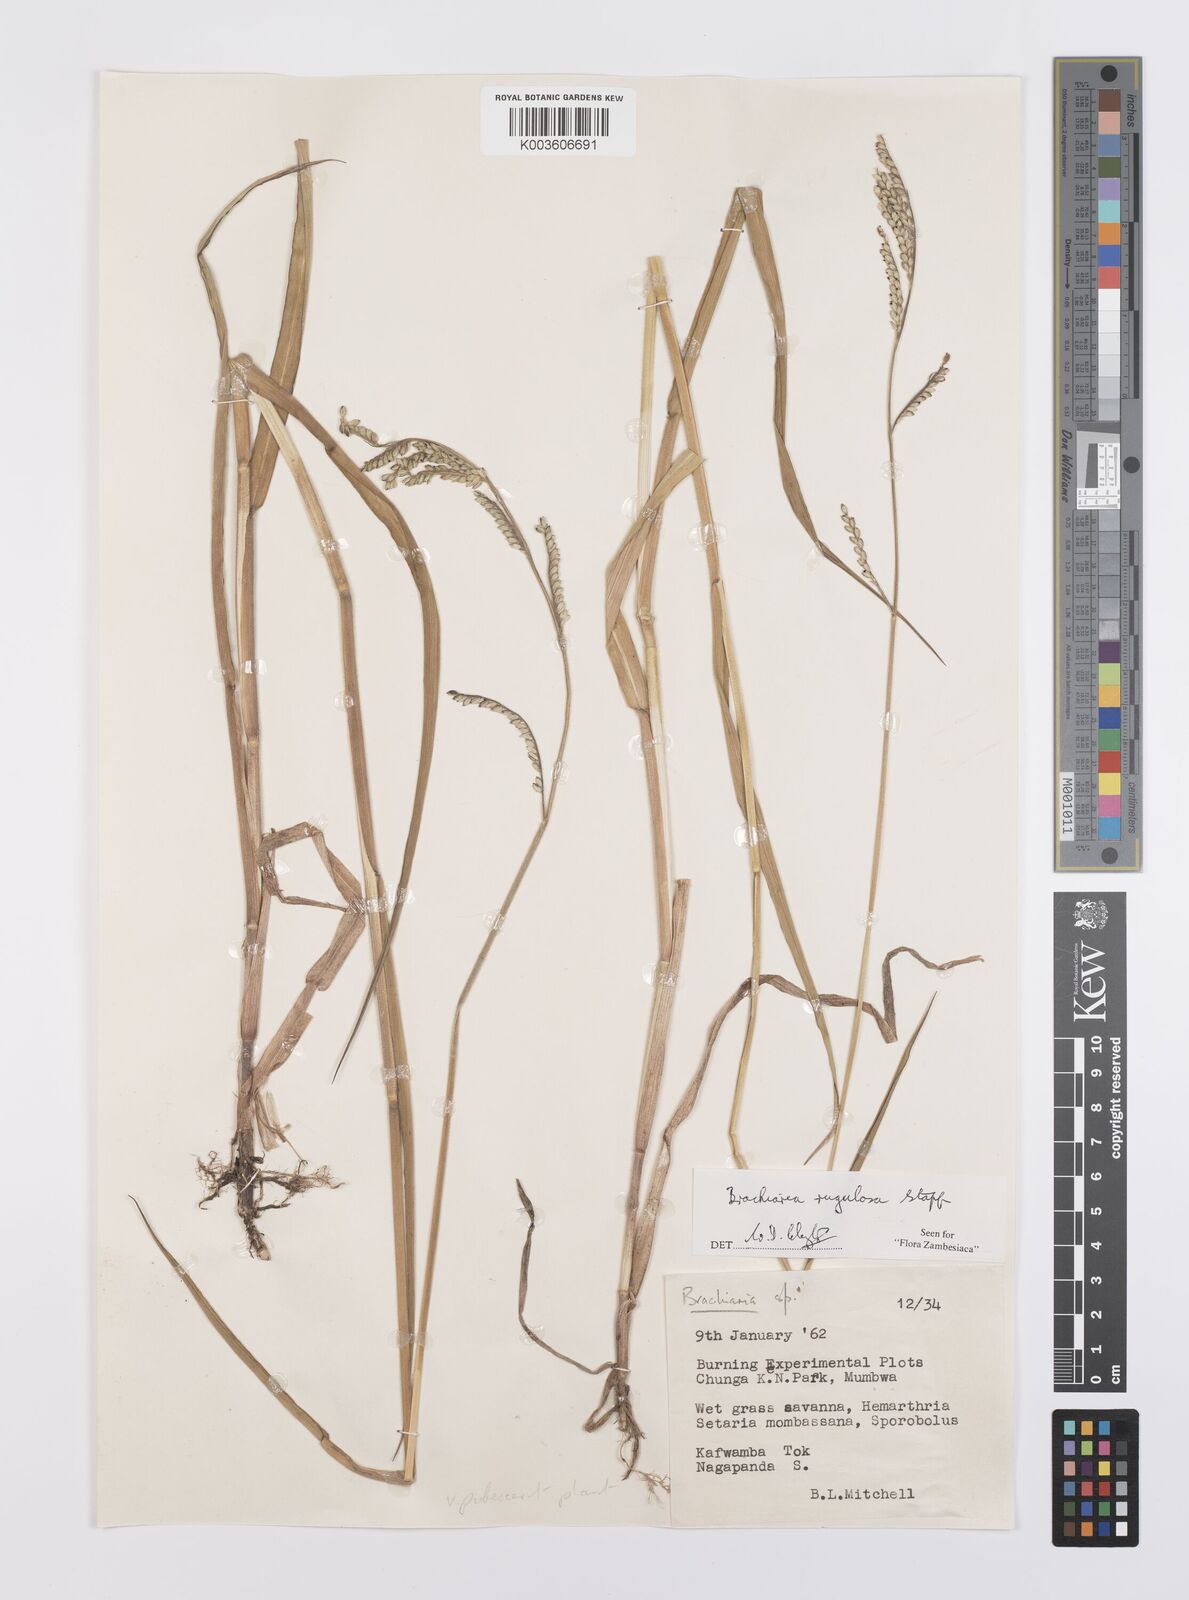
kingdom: Plantae
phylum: Tracheophyta
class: Liliopsida
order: Poales
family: Poaceae
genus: Urochloa
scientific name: Urochloa rugulosa
